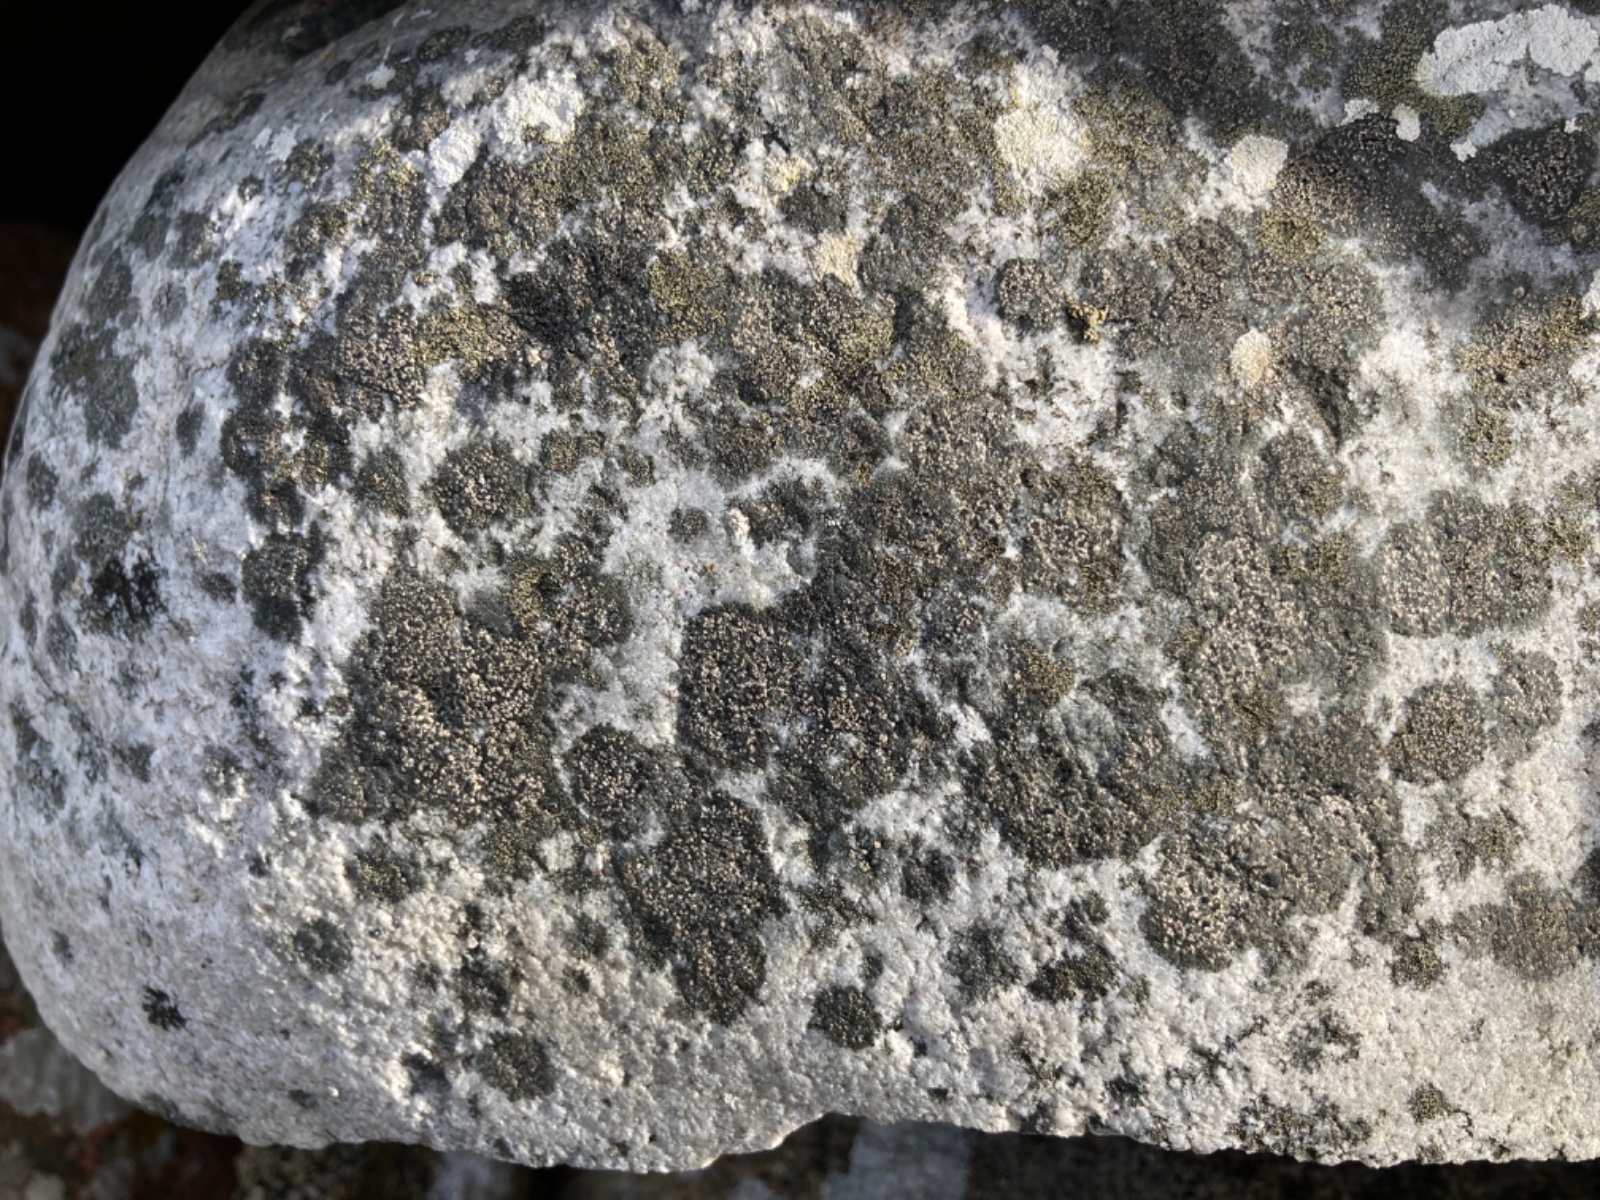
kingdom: Fungi
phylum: Ascomycota
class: Lecanoromycetes
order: Rhizocarpales
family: Rhizocarpaceae
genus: Rhizocarpon
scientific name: Rhizocarpon
